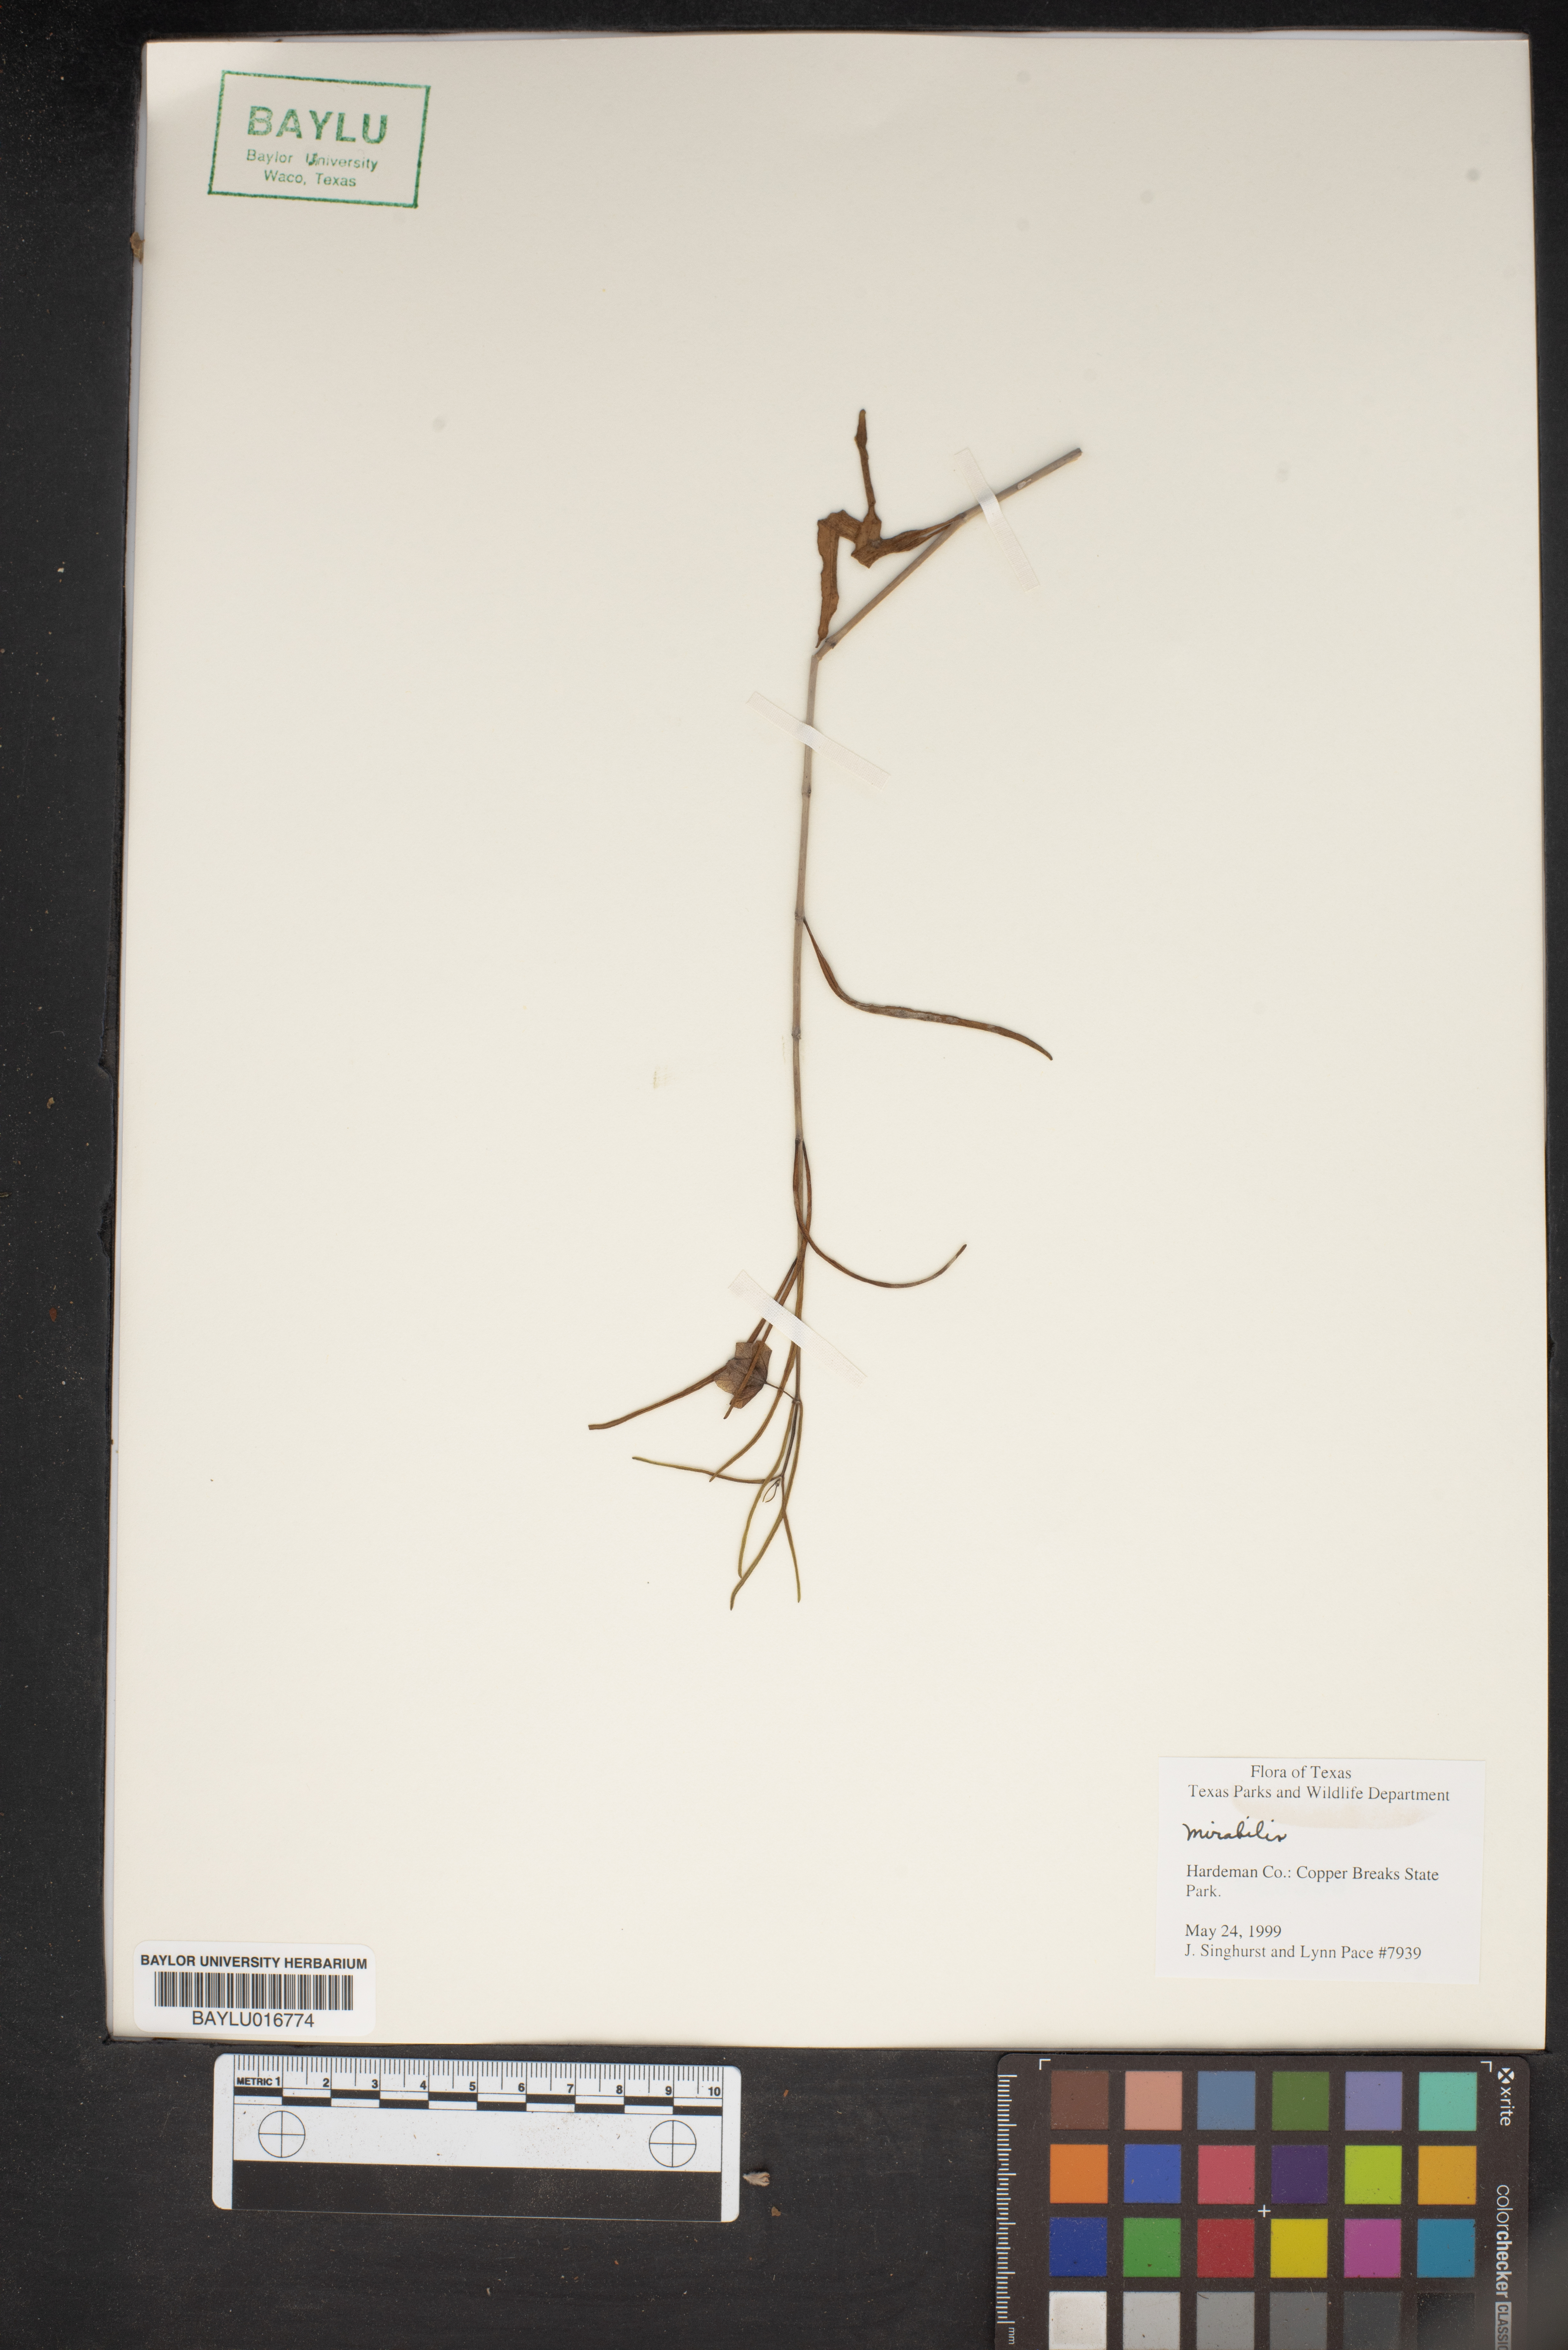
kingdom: Plantae
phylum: Tracheophyta
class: Magnoliopsida
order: Caryophyllales
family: Nyctaginaceae
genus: Mirabilis
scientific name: Mirabilis
